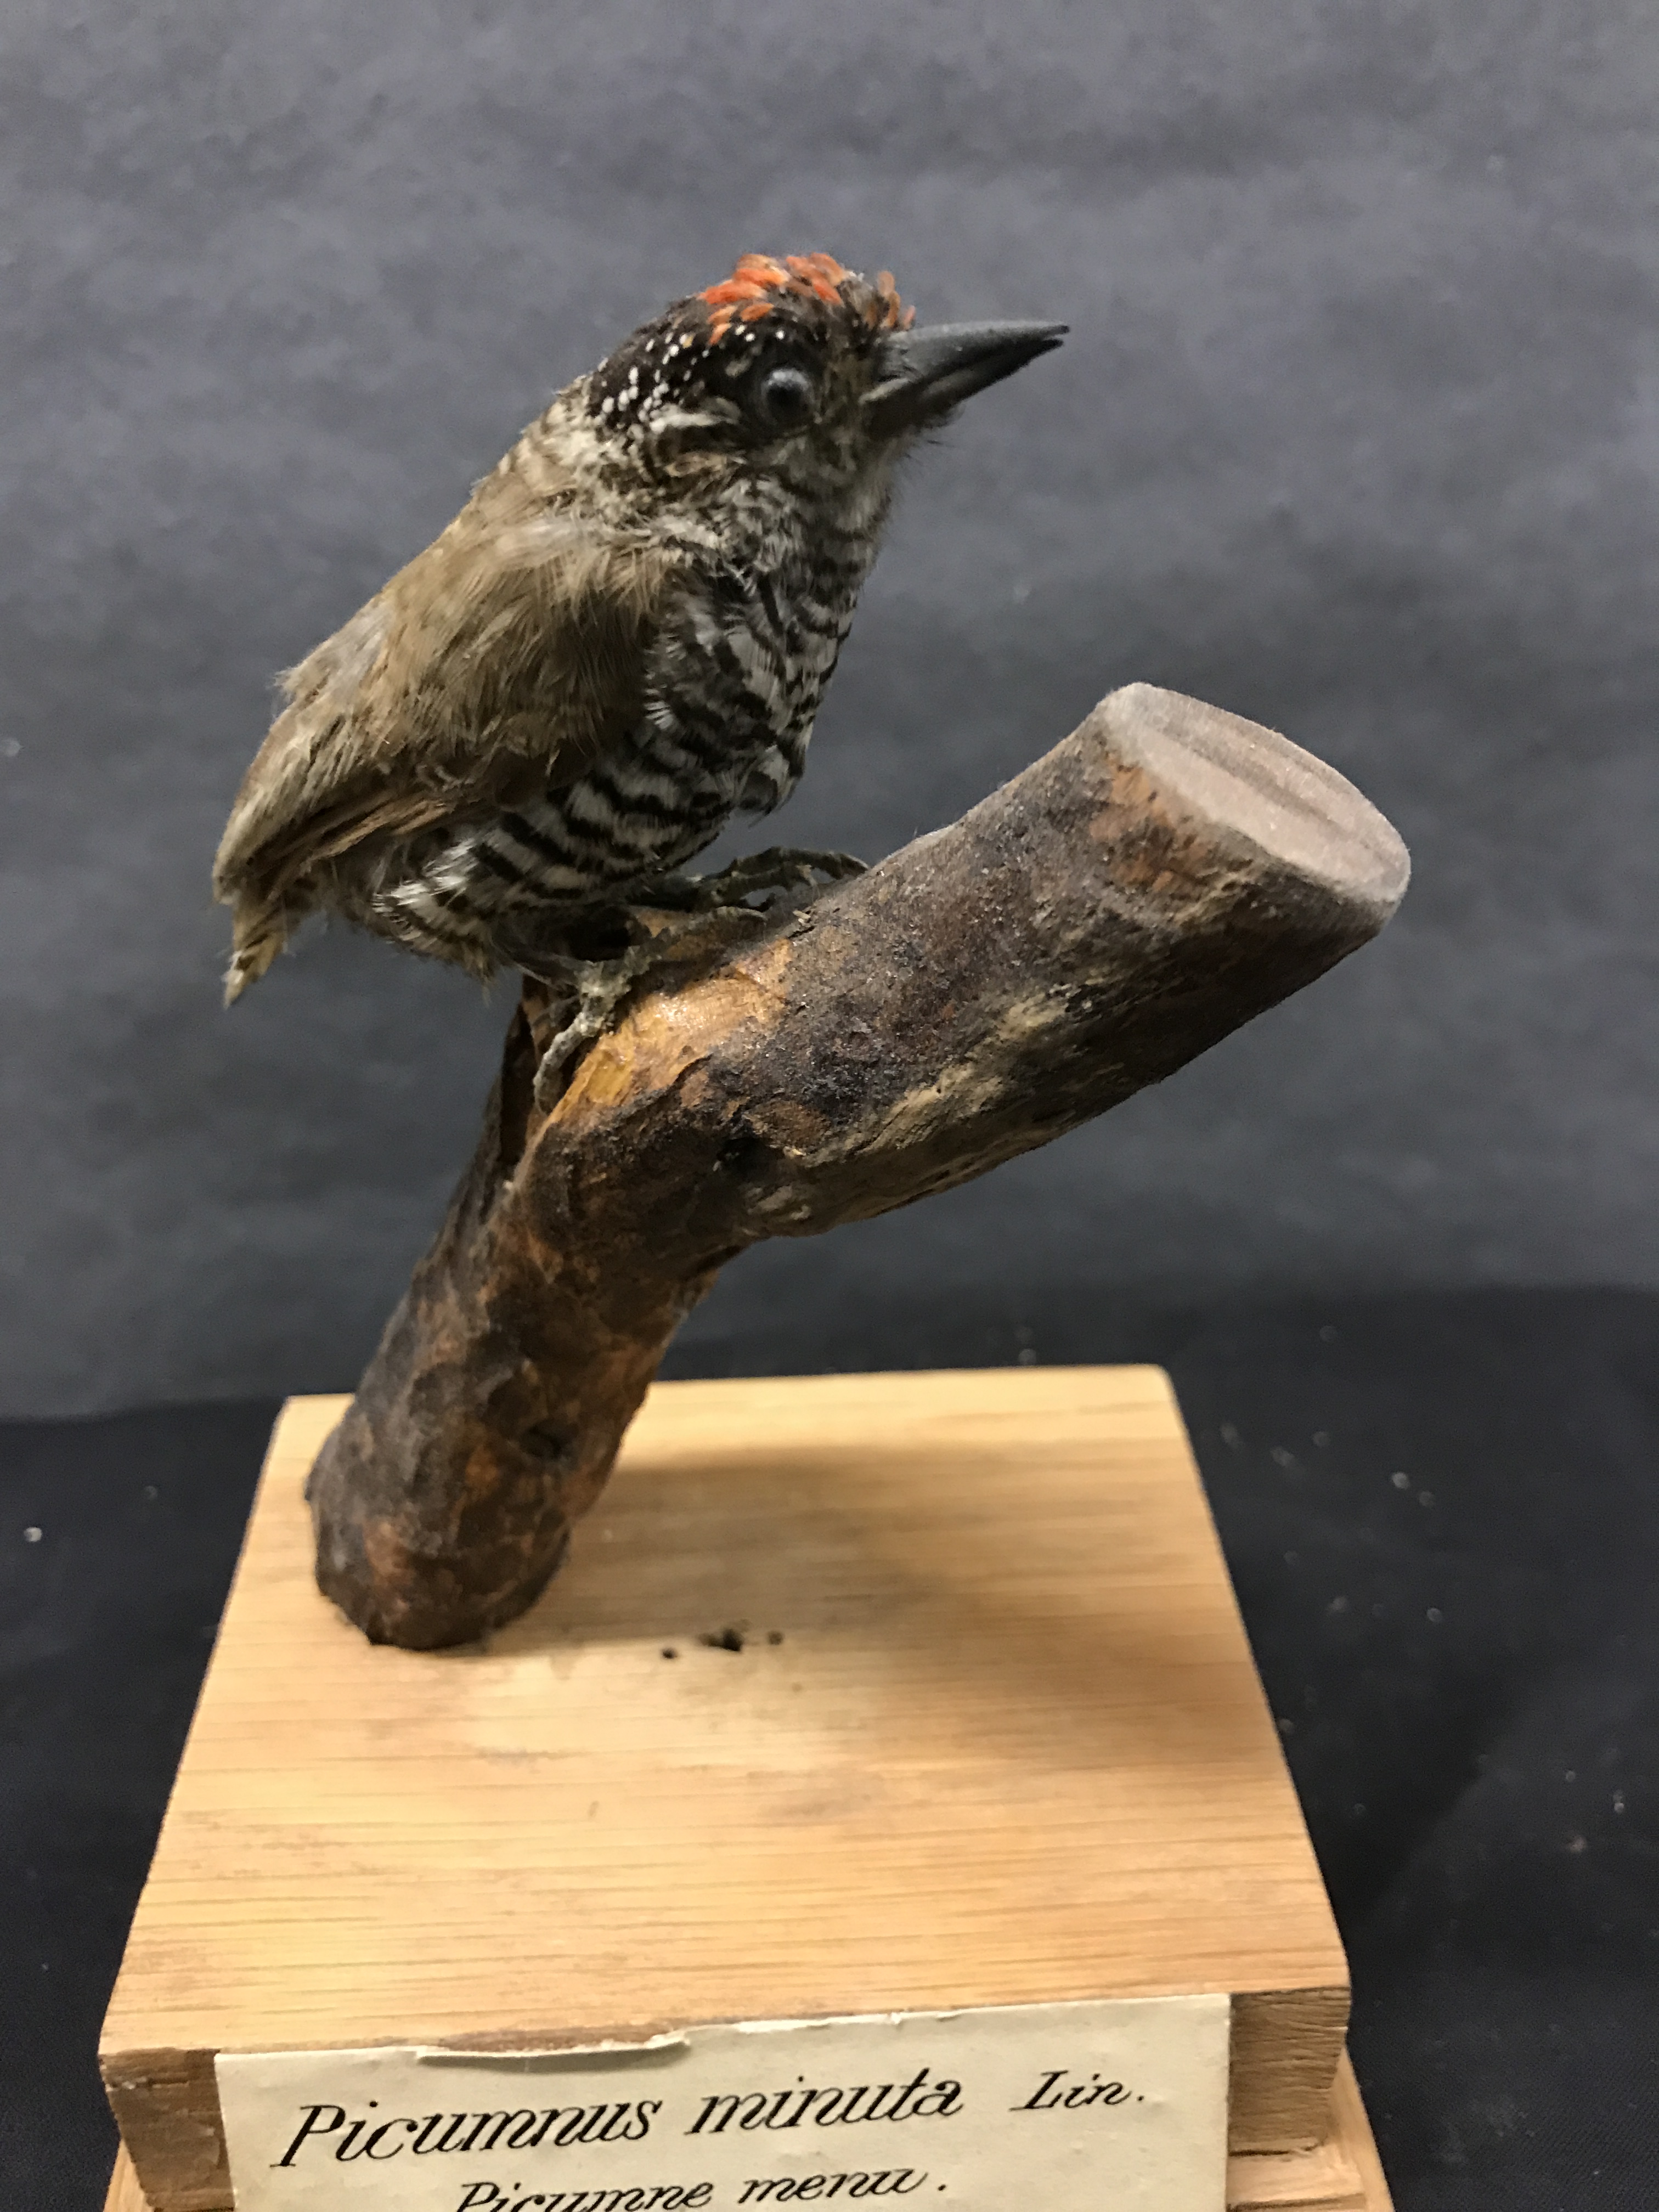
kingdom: Animalia
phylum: Chordata
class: Aves
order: Piciformes
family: Picidae
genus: Picumnus
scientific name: Picumnus cirratus
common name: White-barred piculet
